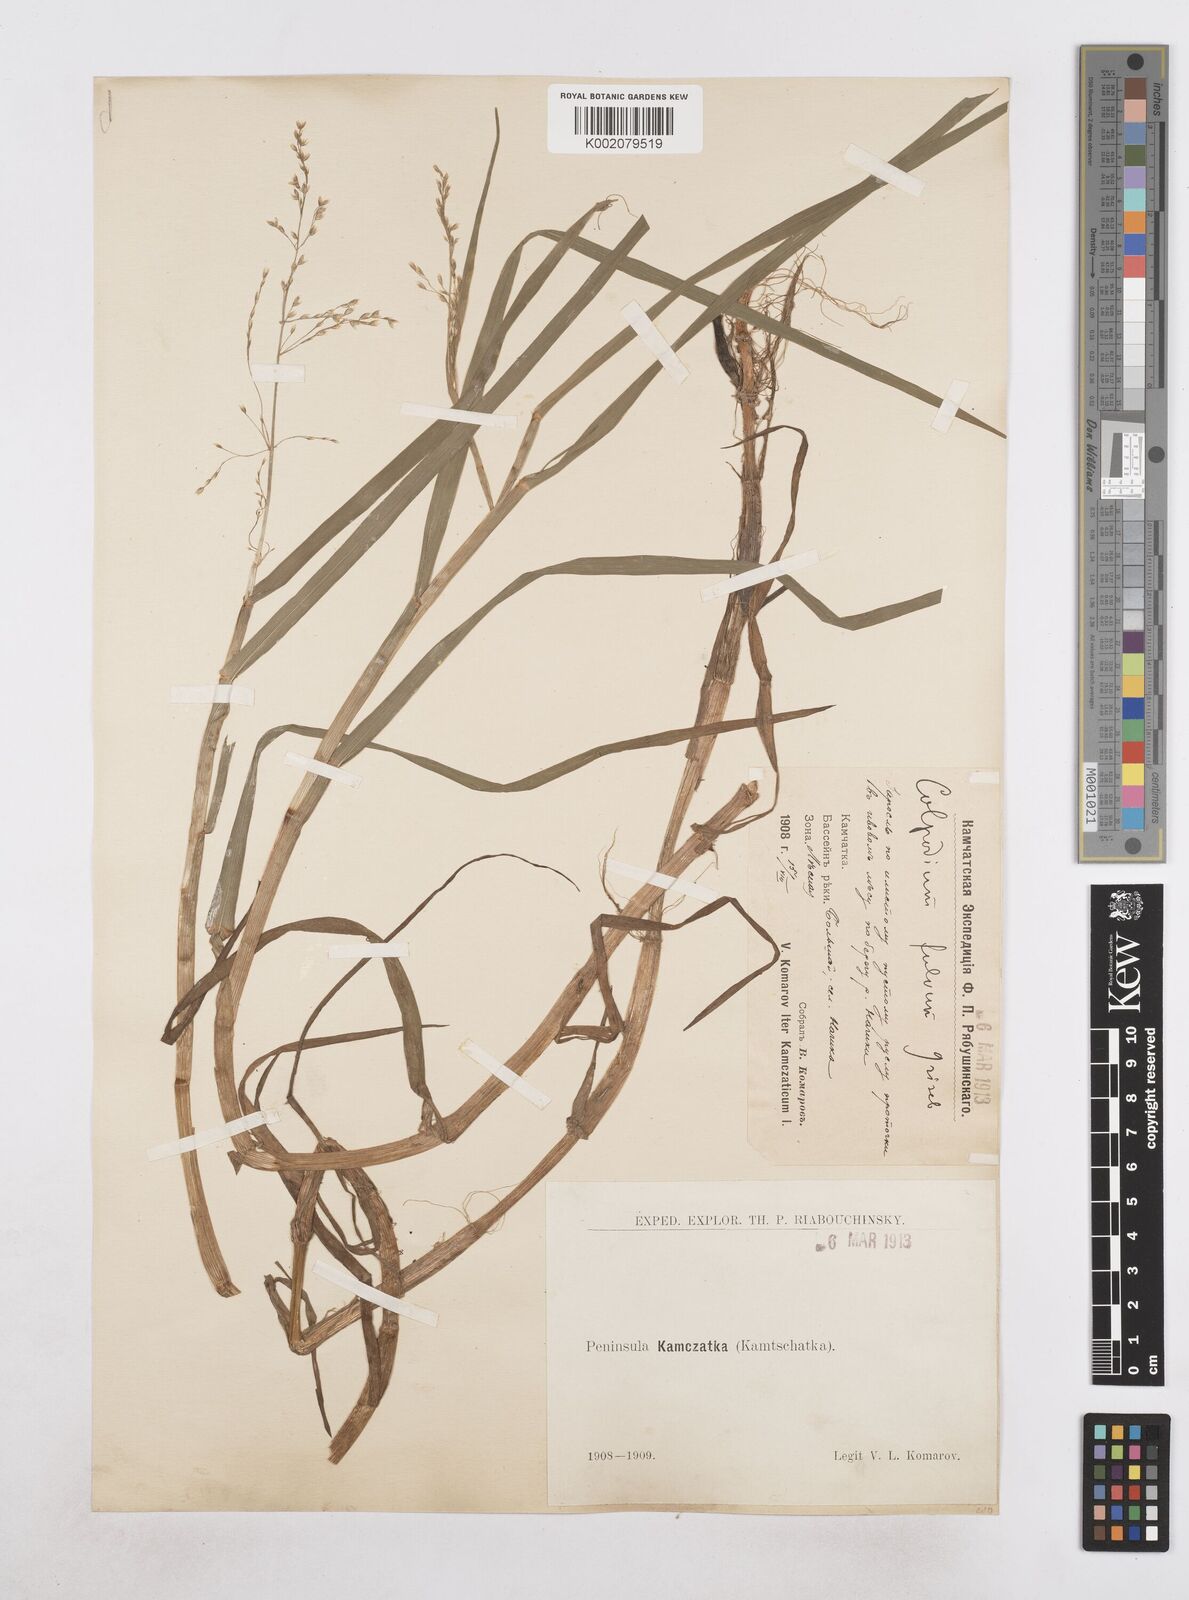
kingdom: Plantae
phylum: Tracheophyta
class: Liliopsida
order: Poales
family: Poaceae
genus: Dupontia
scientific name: Dupontia fulva
